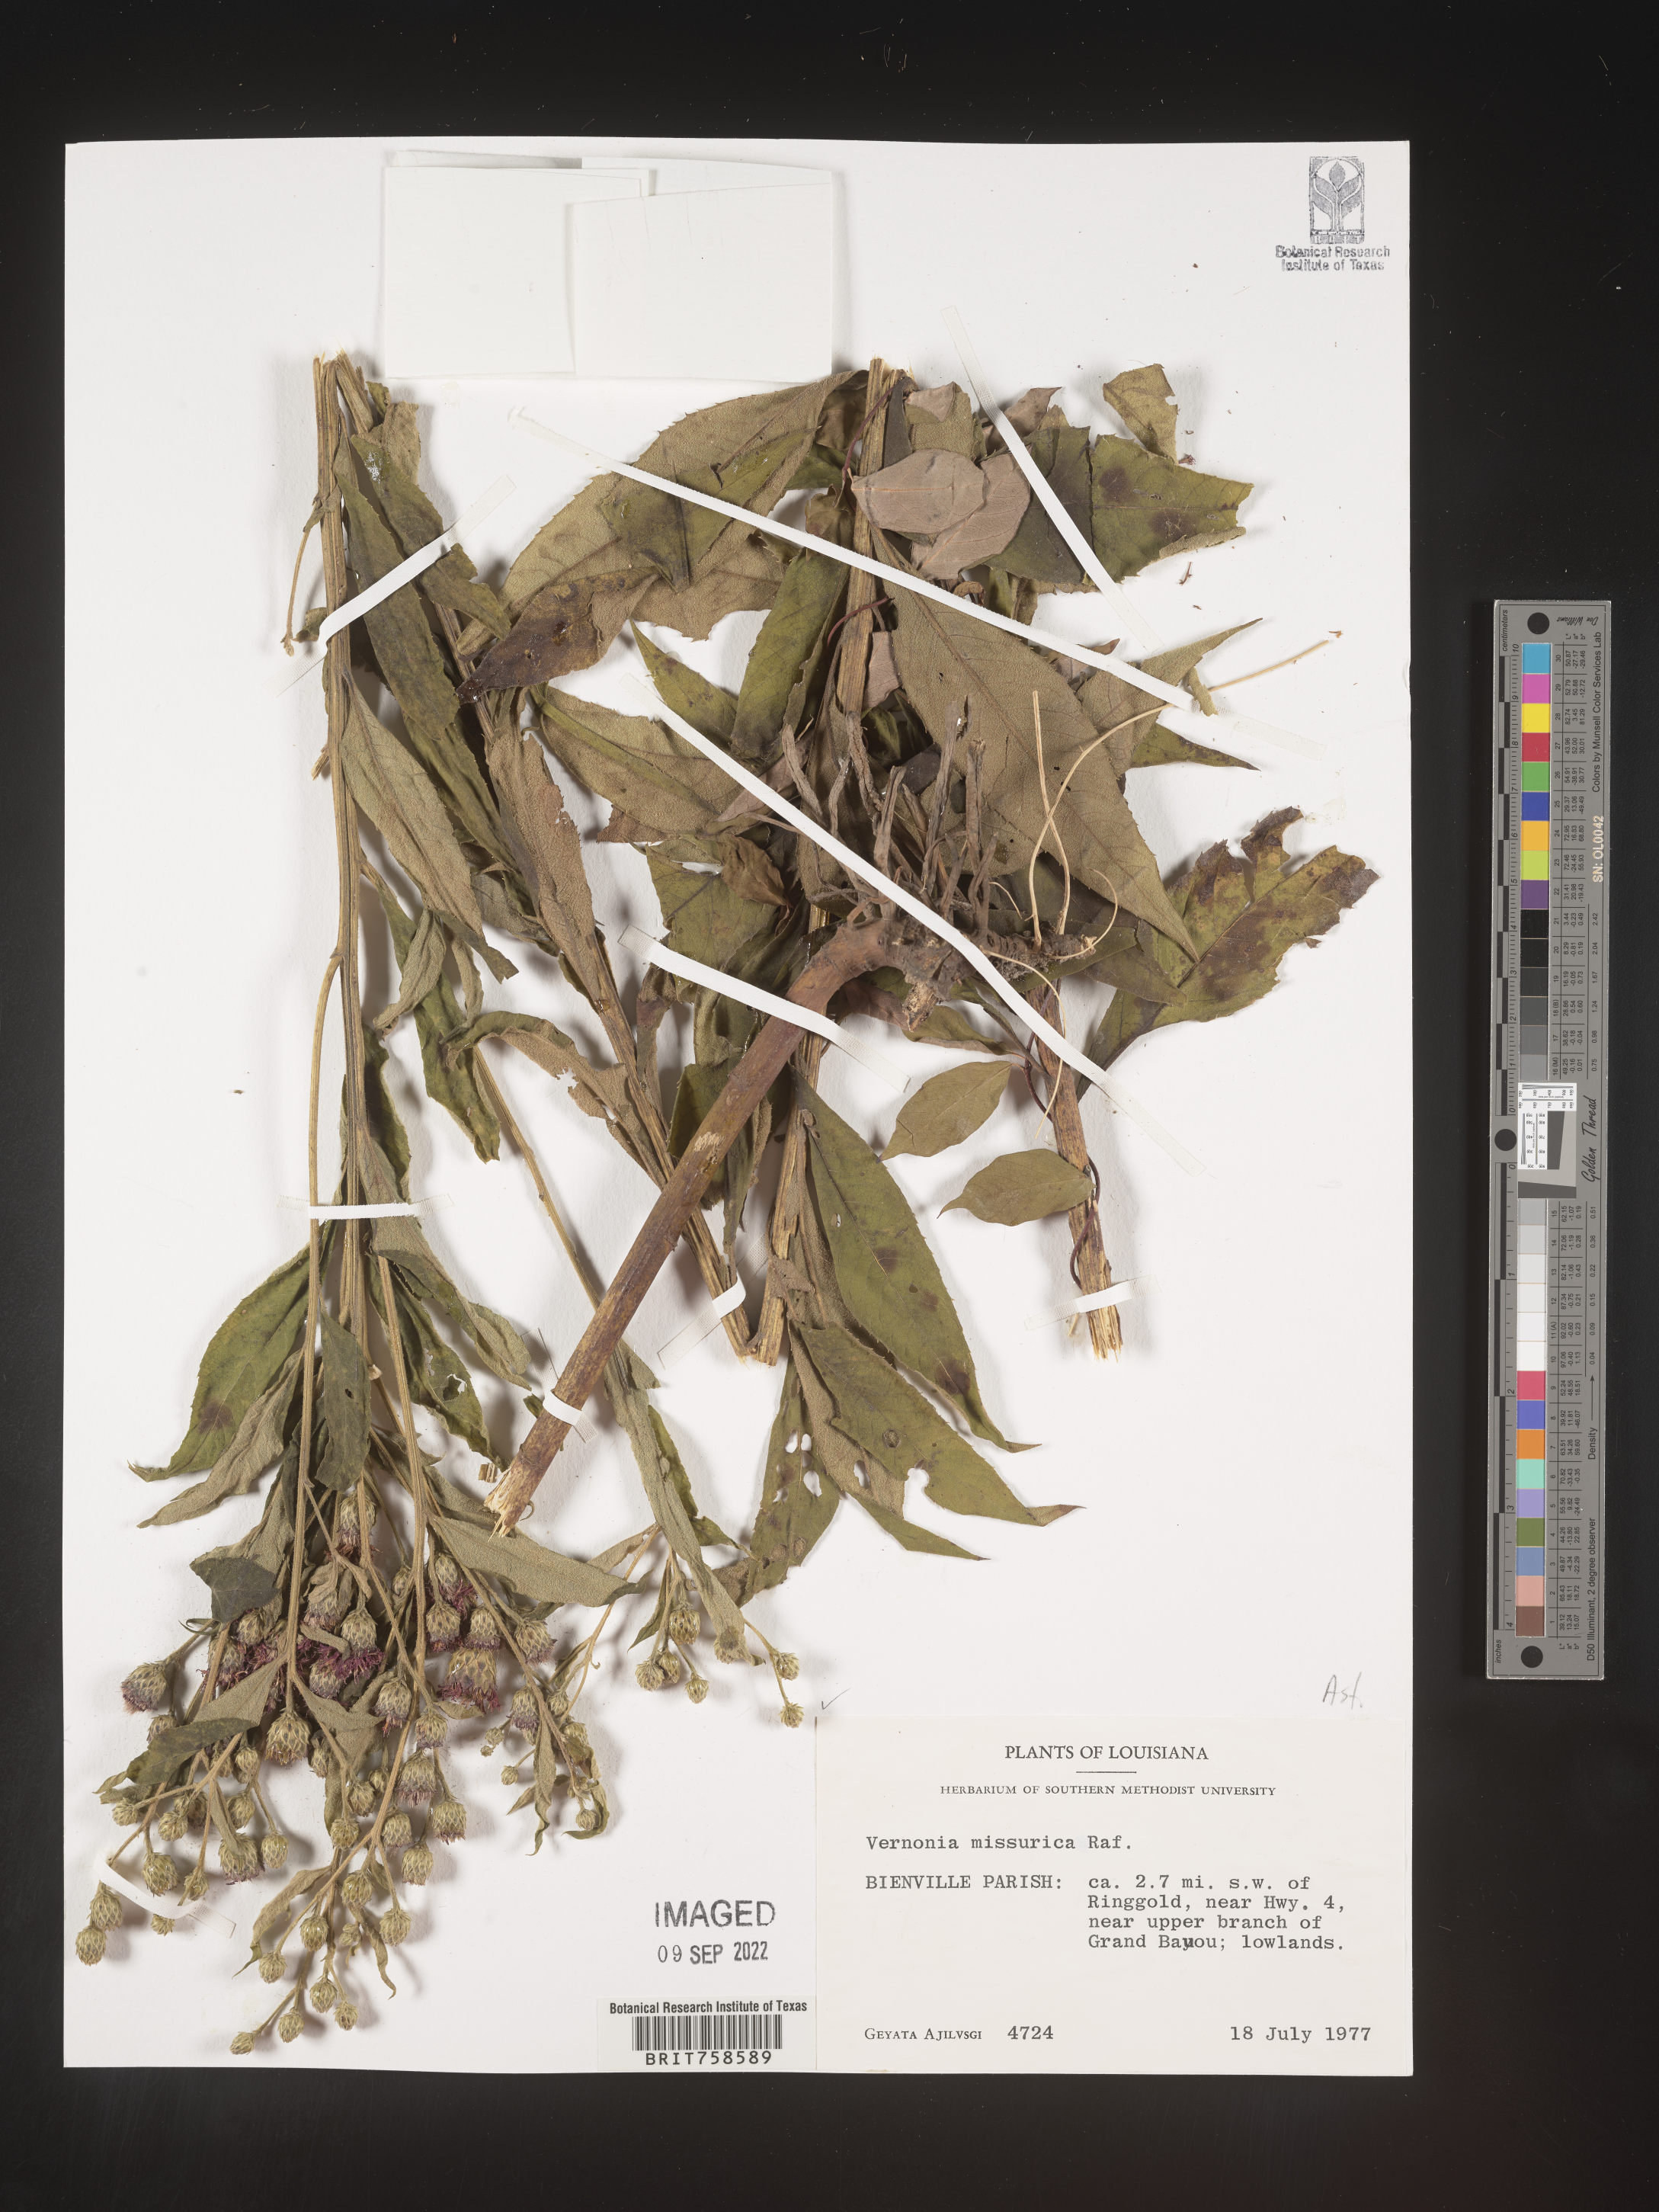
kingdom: Plantae
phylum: Tracheophyta
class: Magnoliopsida
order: Asterales
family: Asteraceae
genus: Vernonia
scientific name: Vernonia missurica
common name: Missouri ironweed
